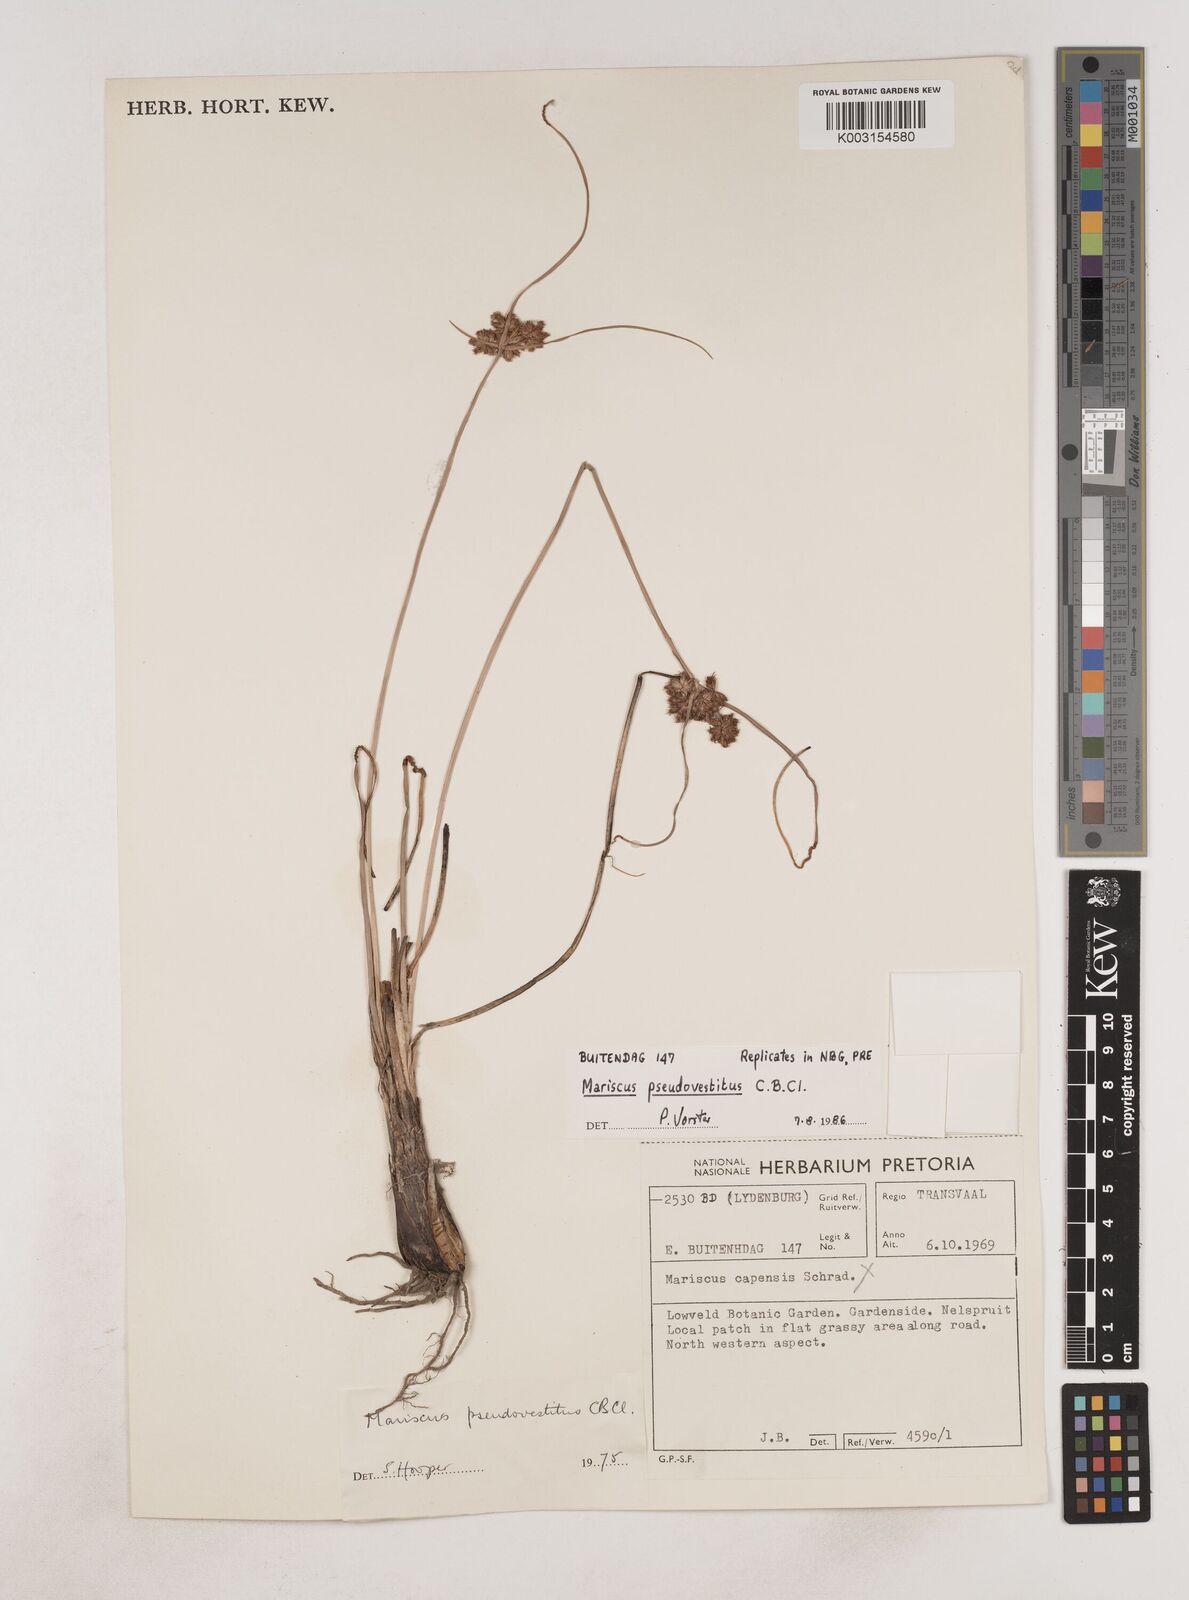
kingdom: Plantae
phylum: Tracheophyta
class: Liliopsida
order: Poales
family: Cyperaceae
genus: Cyperus
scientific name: Cyperus pseudovestitus
